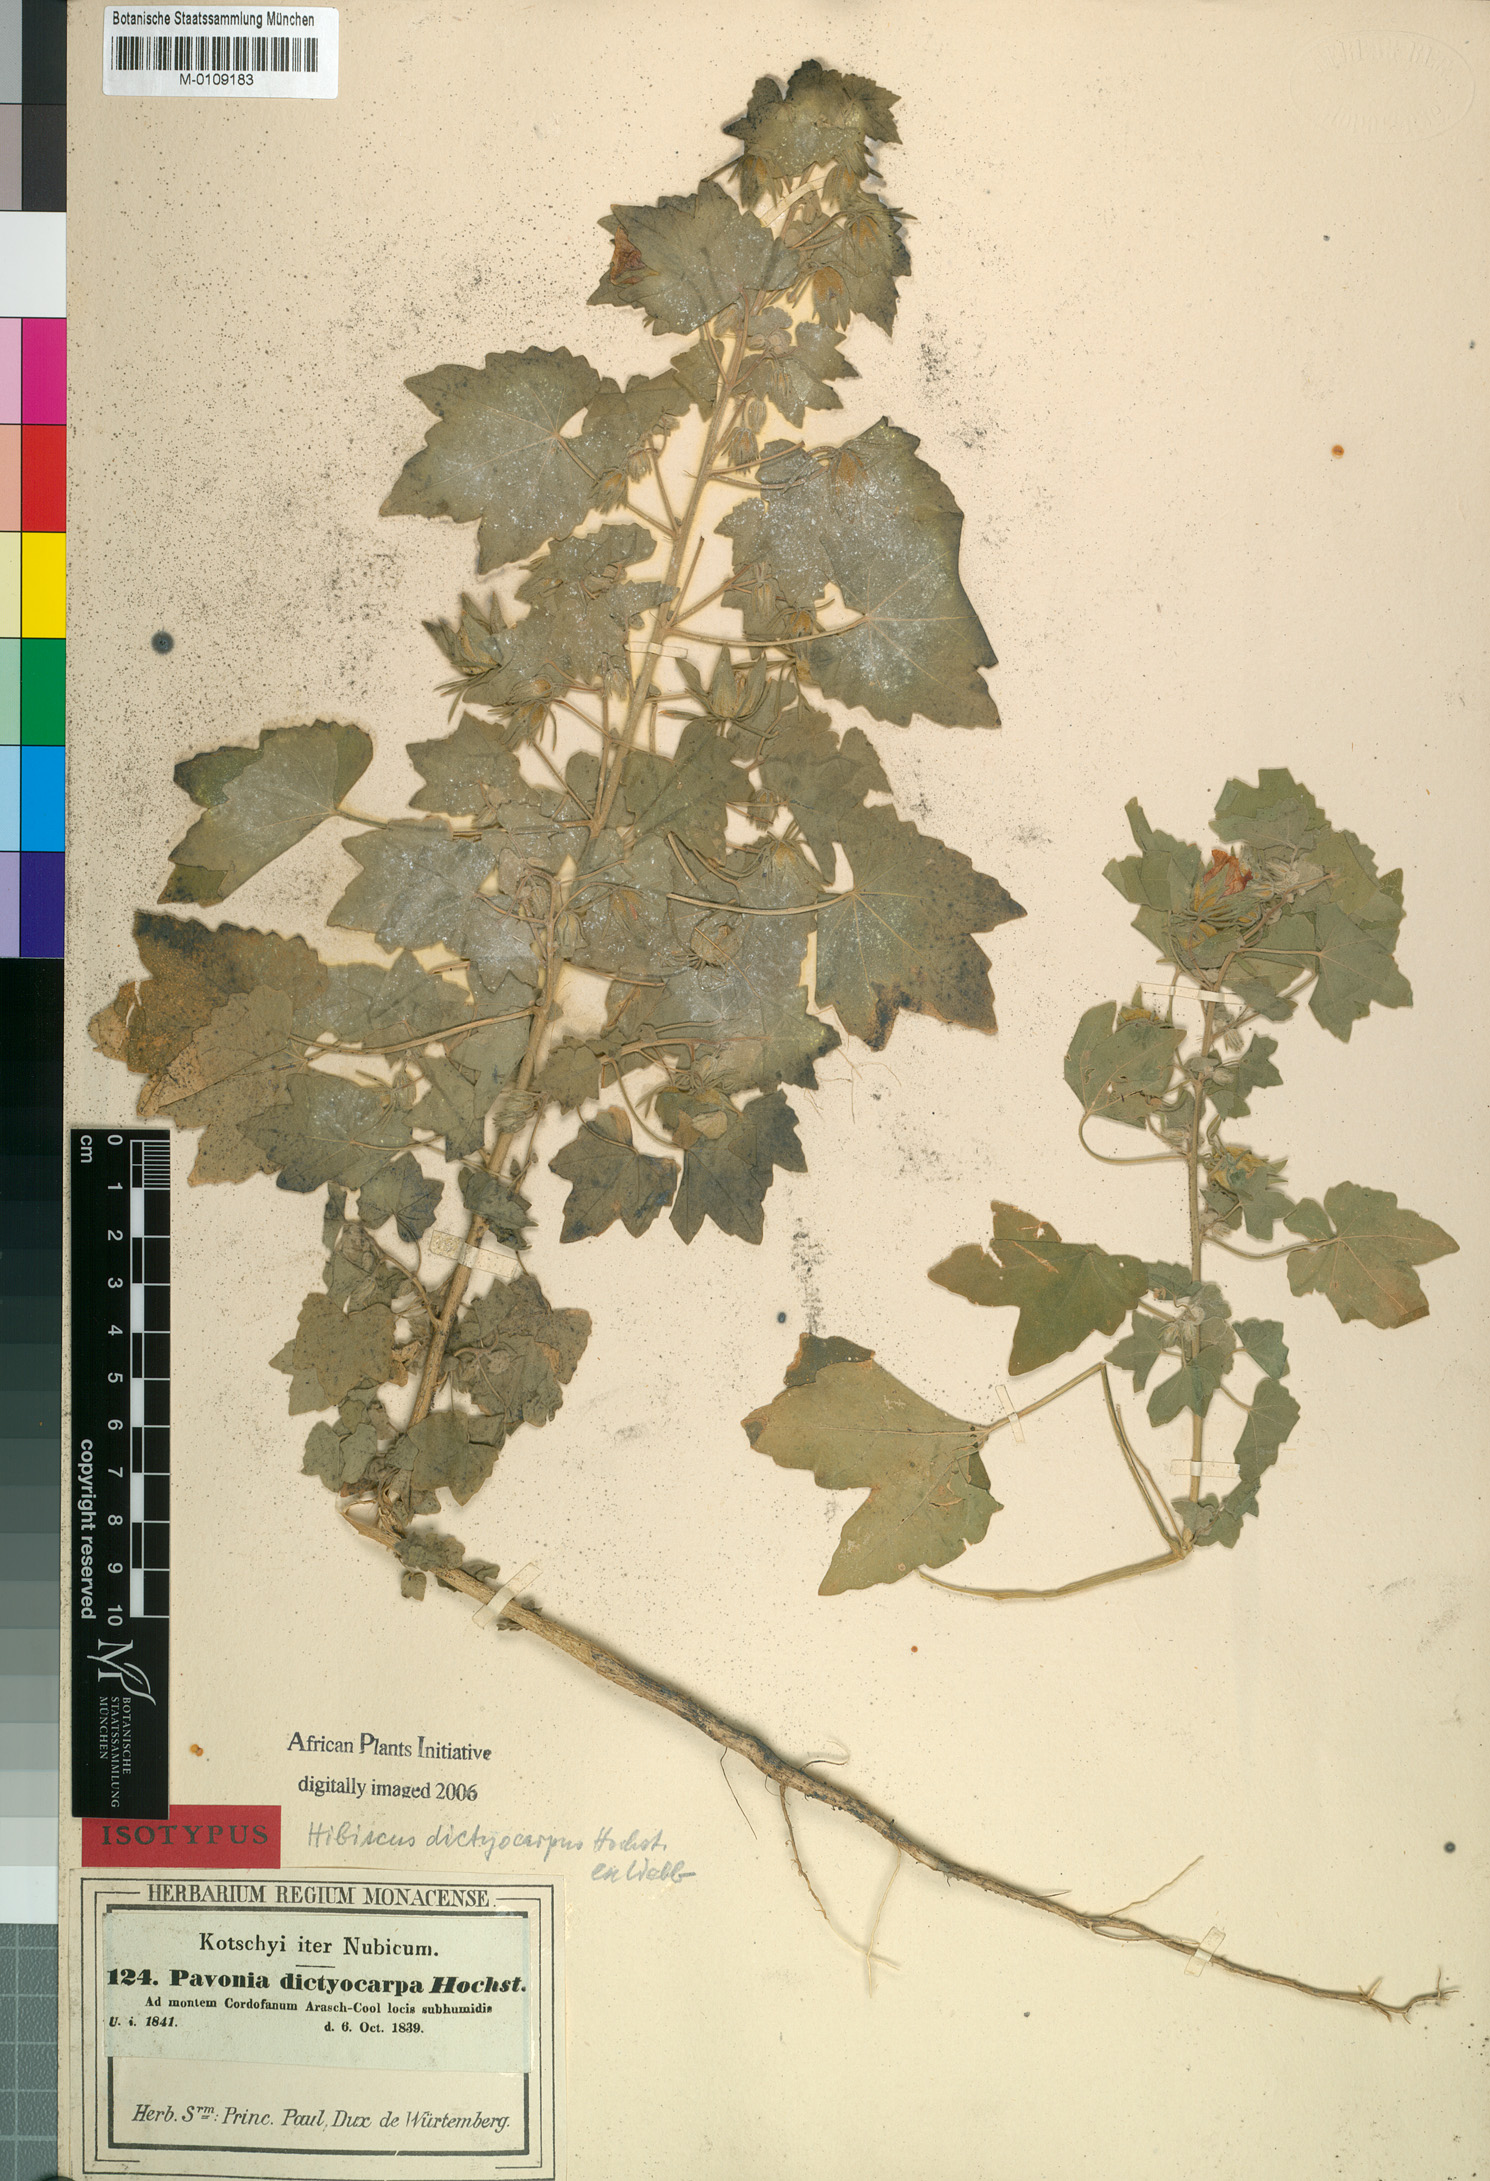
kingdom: Plantae
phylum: Tracheophyta
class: Magnoliopsida
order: Malvales
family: Malvaceae
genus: Roifia
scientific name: Roifia dictyocarpa
